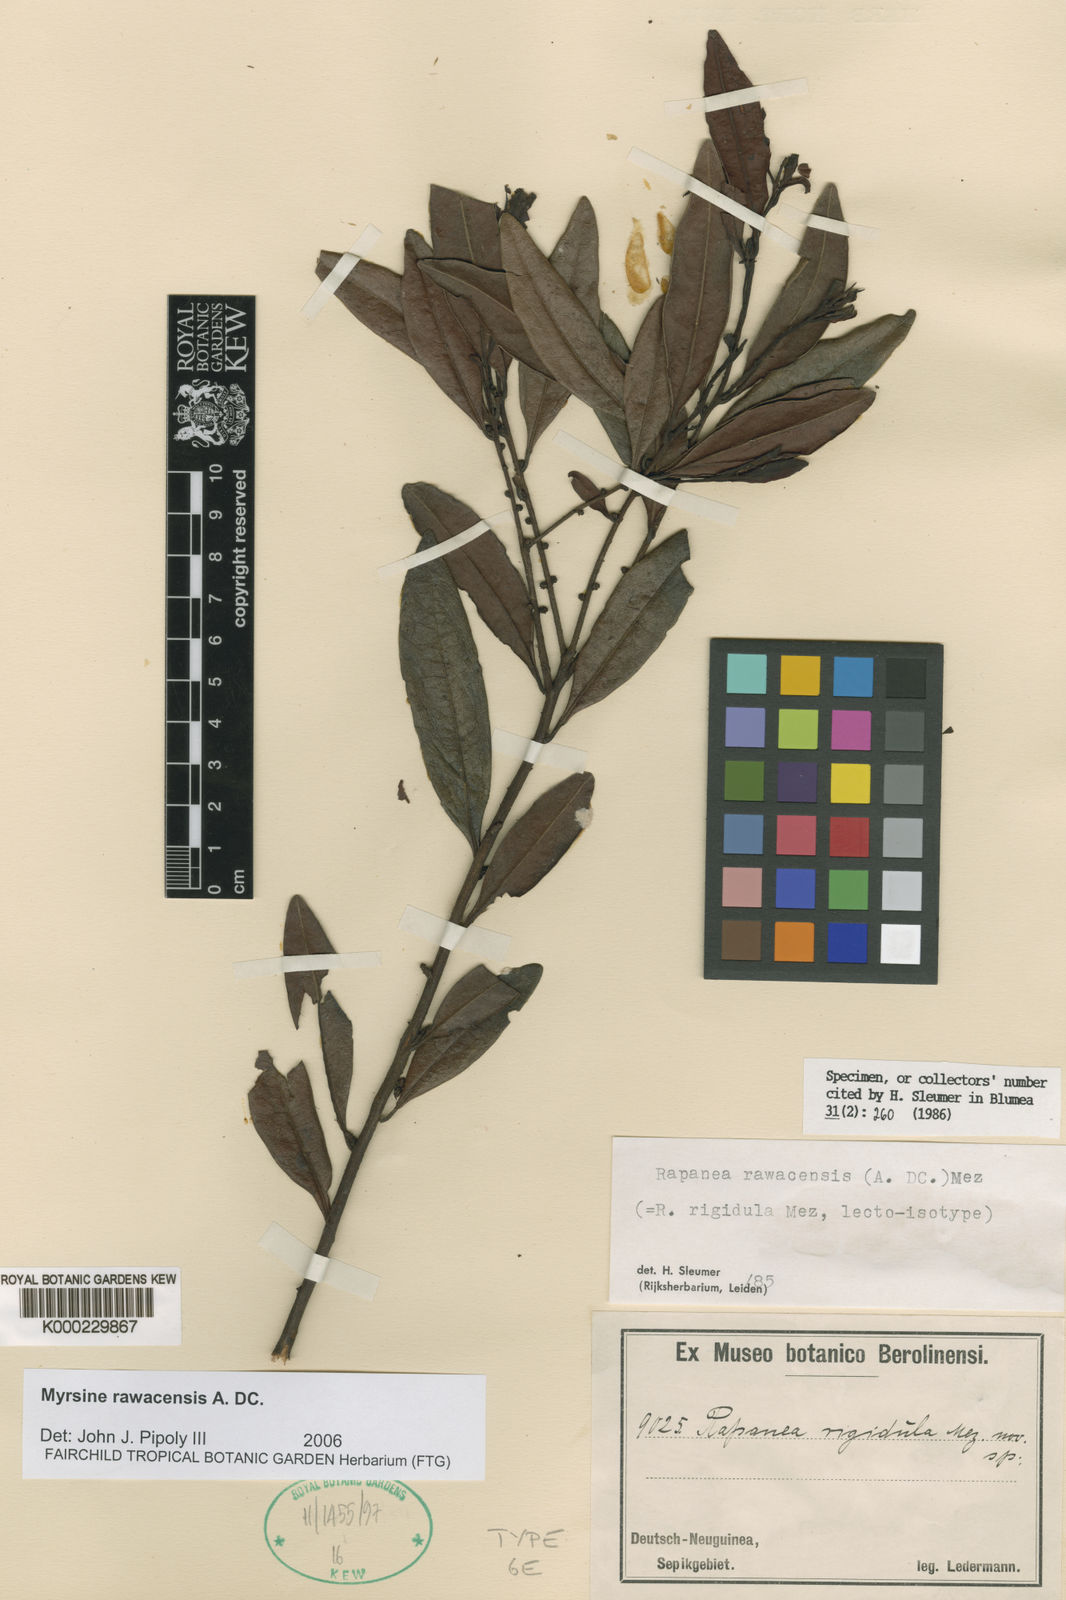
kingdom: Plantae
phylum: Tracheophyta
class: Magnoliopsida
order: Ericales
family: Primulaceae
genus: Myrsine
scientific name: Myrsine rawacensis
